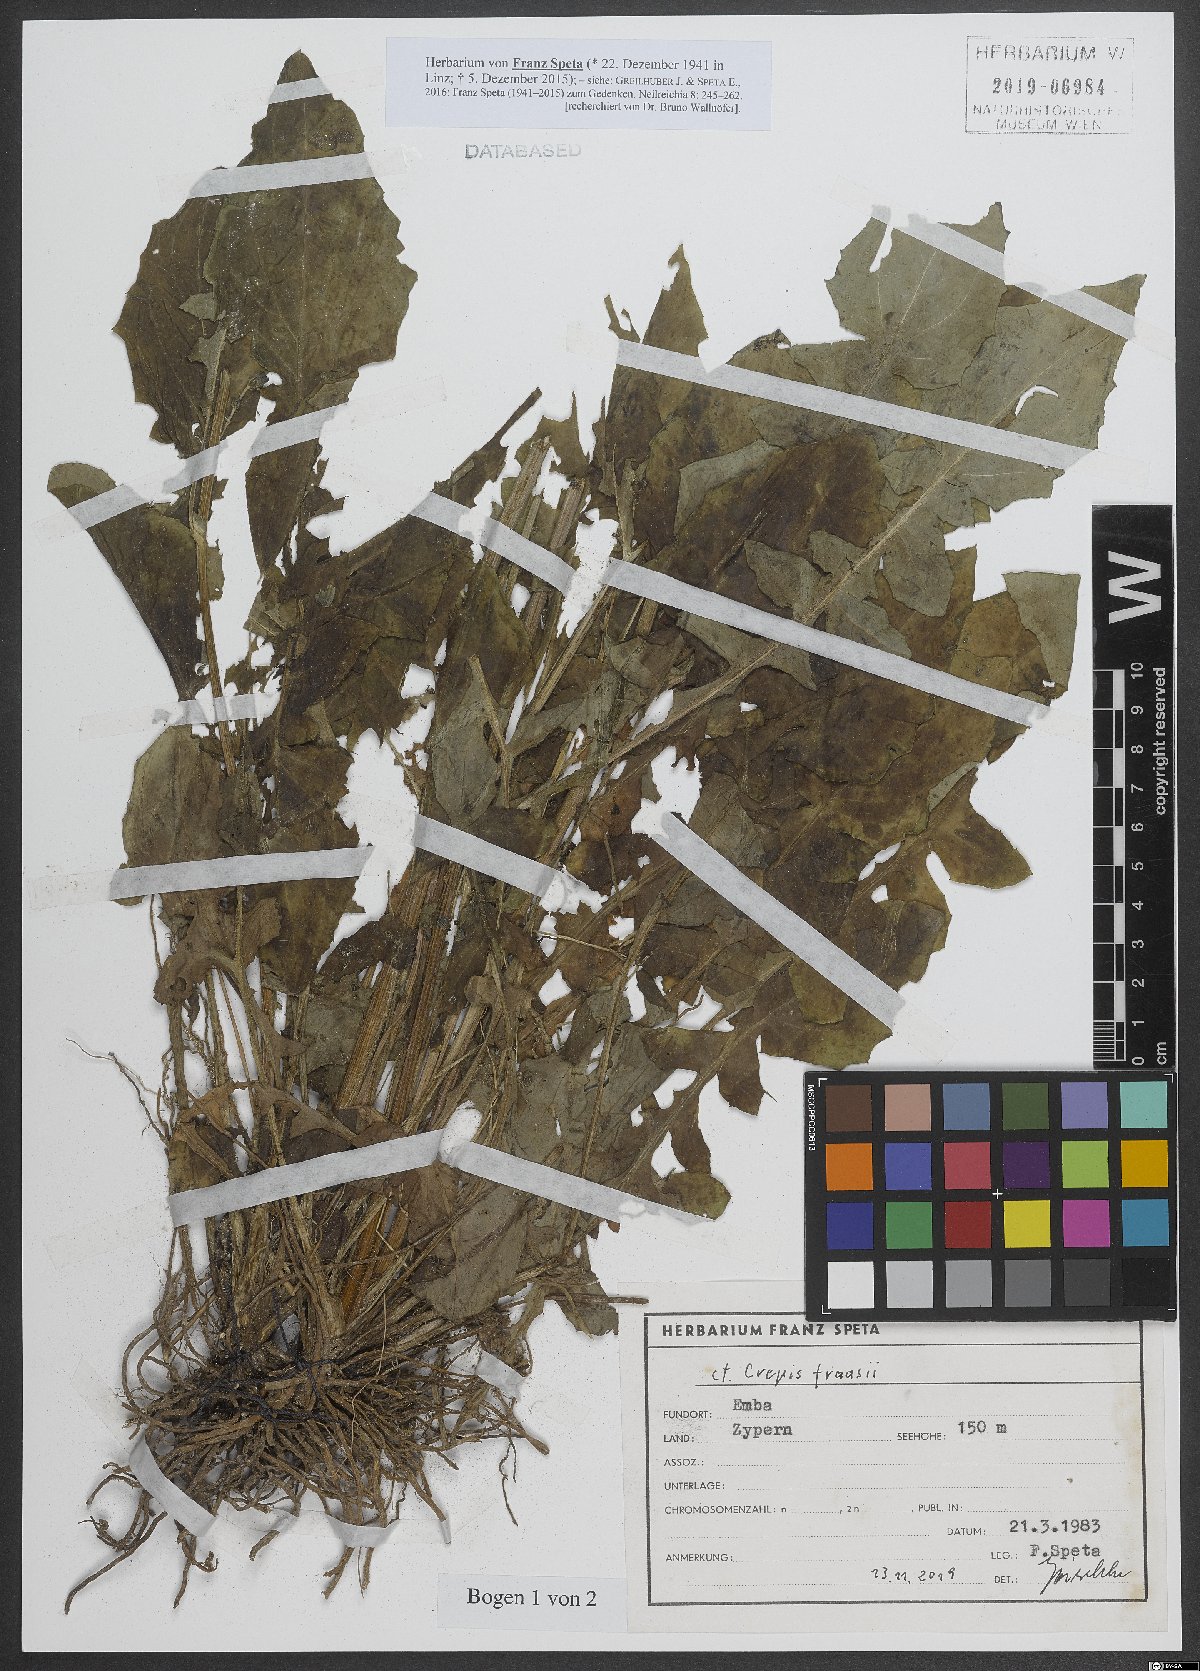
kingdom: Plantae
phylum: Tracheophyta
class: Magnoliopsida
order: Asterales
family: Asteraceae
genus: Crepis
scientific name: Crepis fraasii
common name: Hawk's-beard
